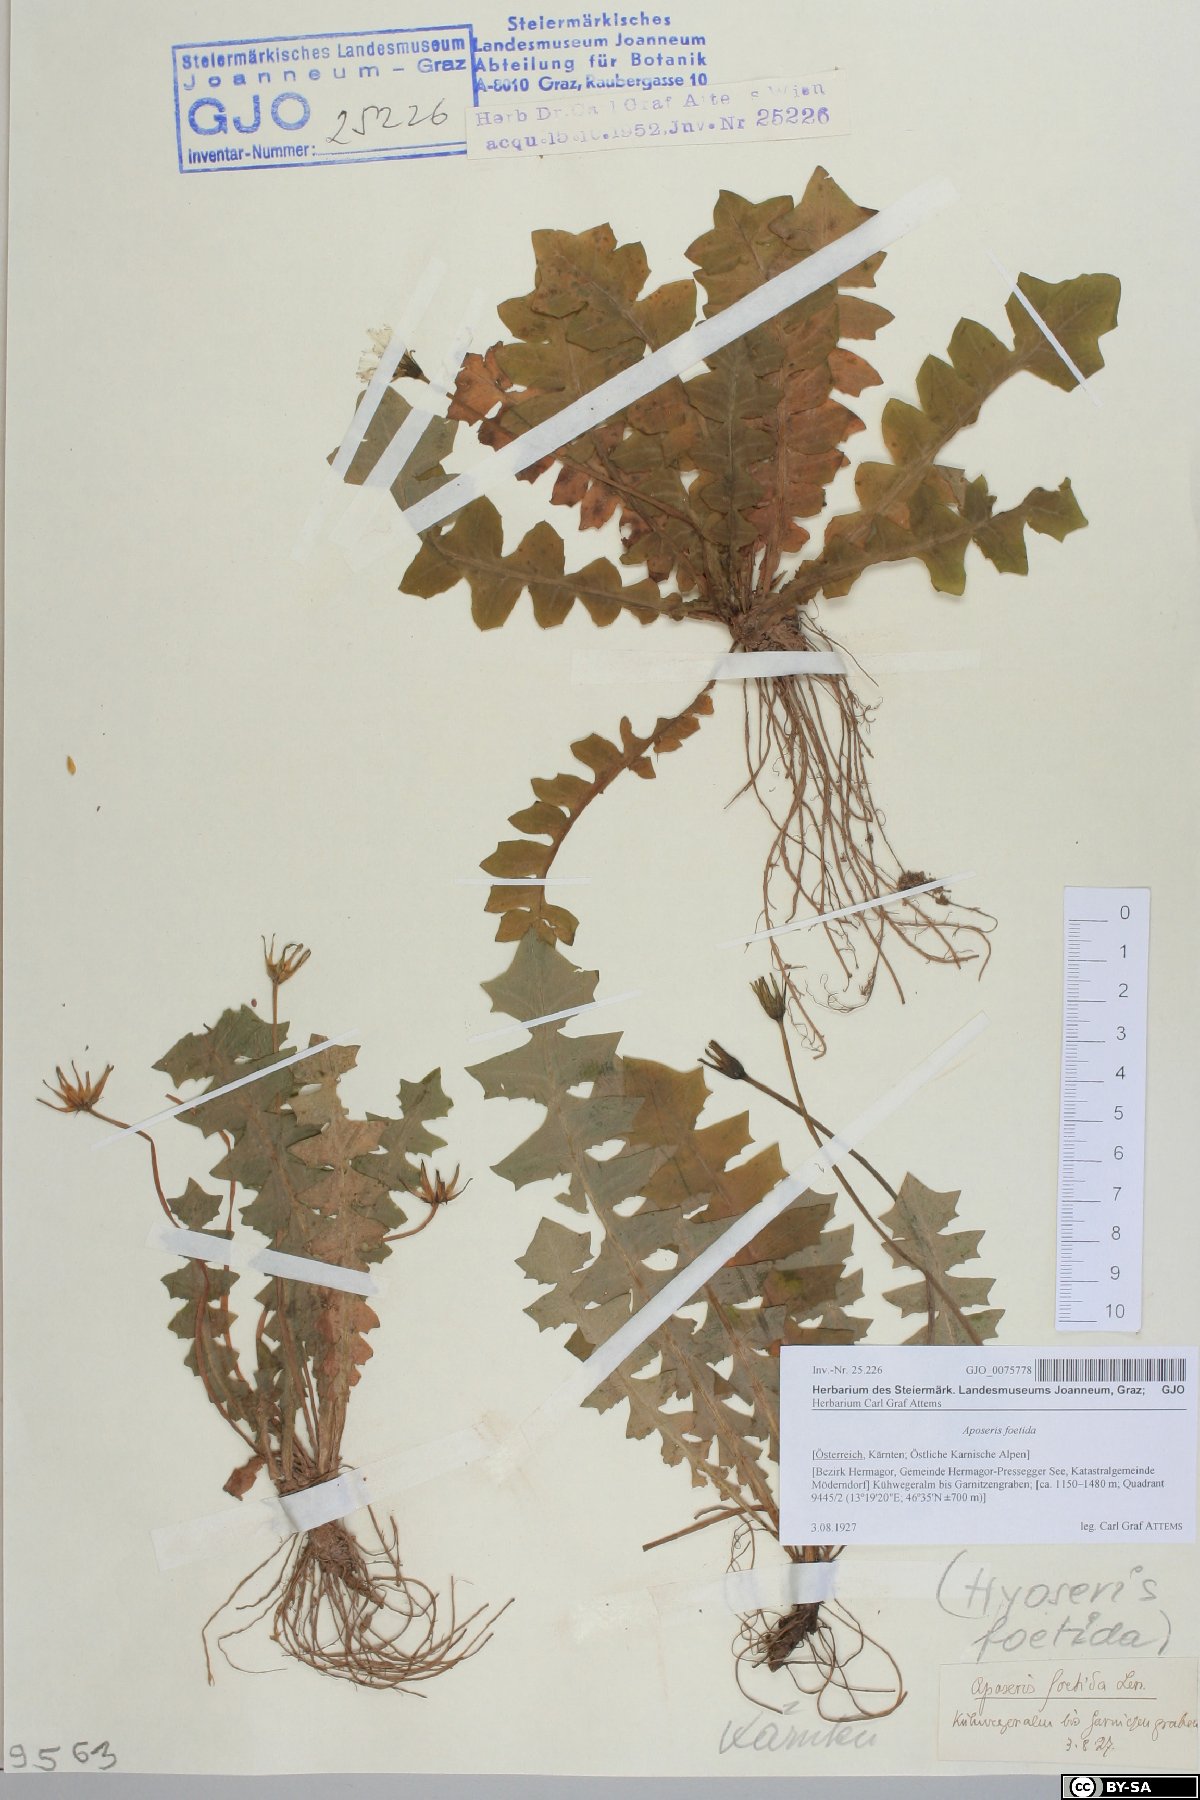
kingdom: Plantae
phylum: Tracheophyta
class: Magnoliopsida
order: Asterales
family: Asteraceae
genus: Aposeris
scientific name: Aposeris foetida
